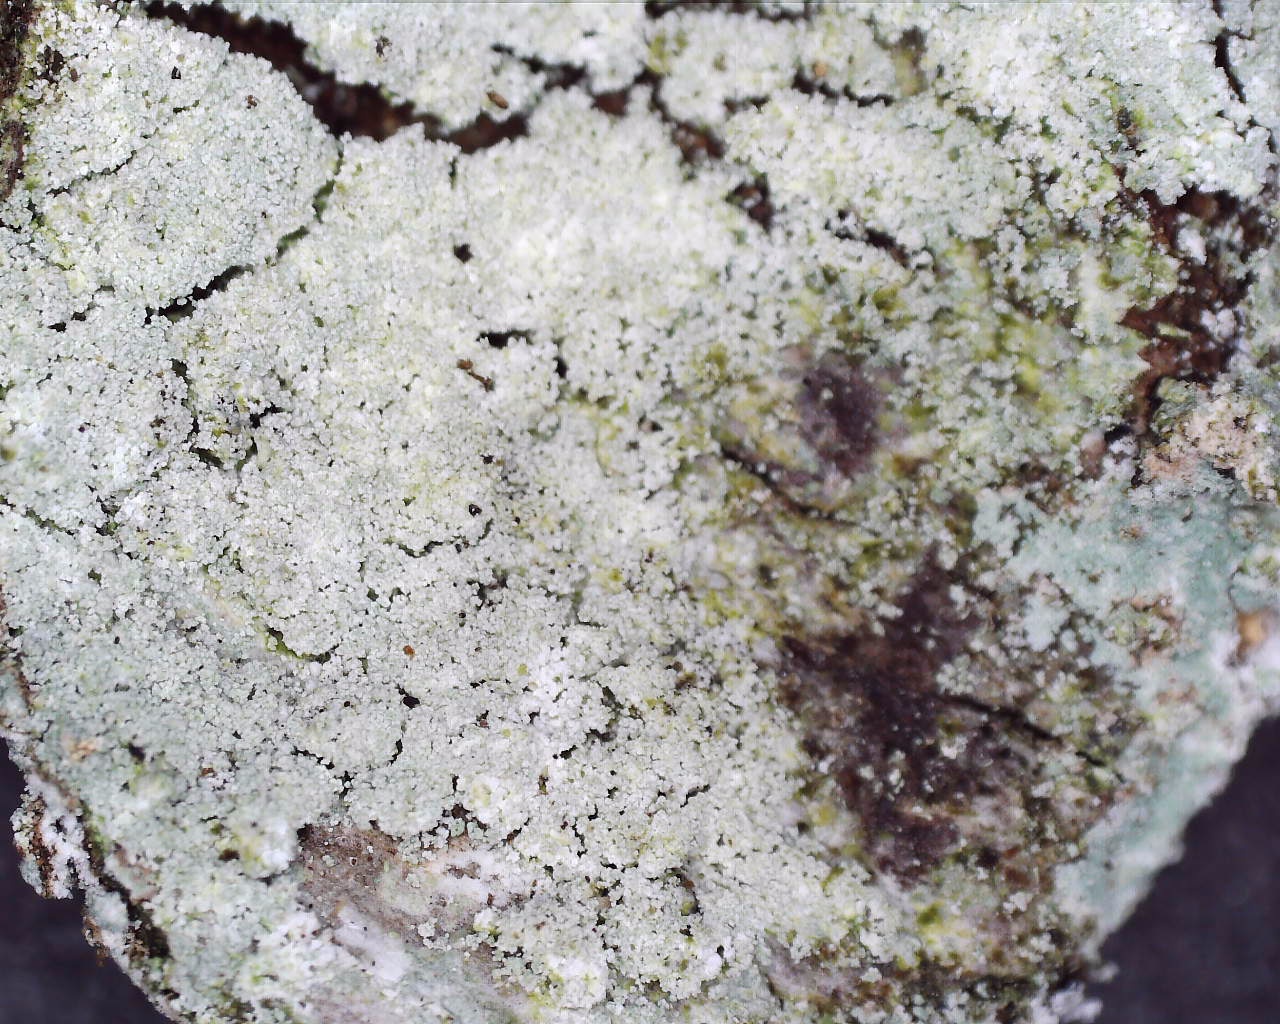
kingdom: Fungi
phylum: Ascomycota
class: Lecanoromycetes
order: Pertusariales
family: Ochrolechiaceae
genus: Ochrolechia
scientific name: Ochrolechia microstictoides
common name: udbredt blegskivelav
